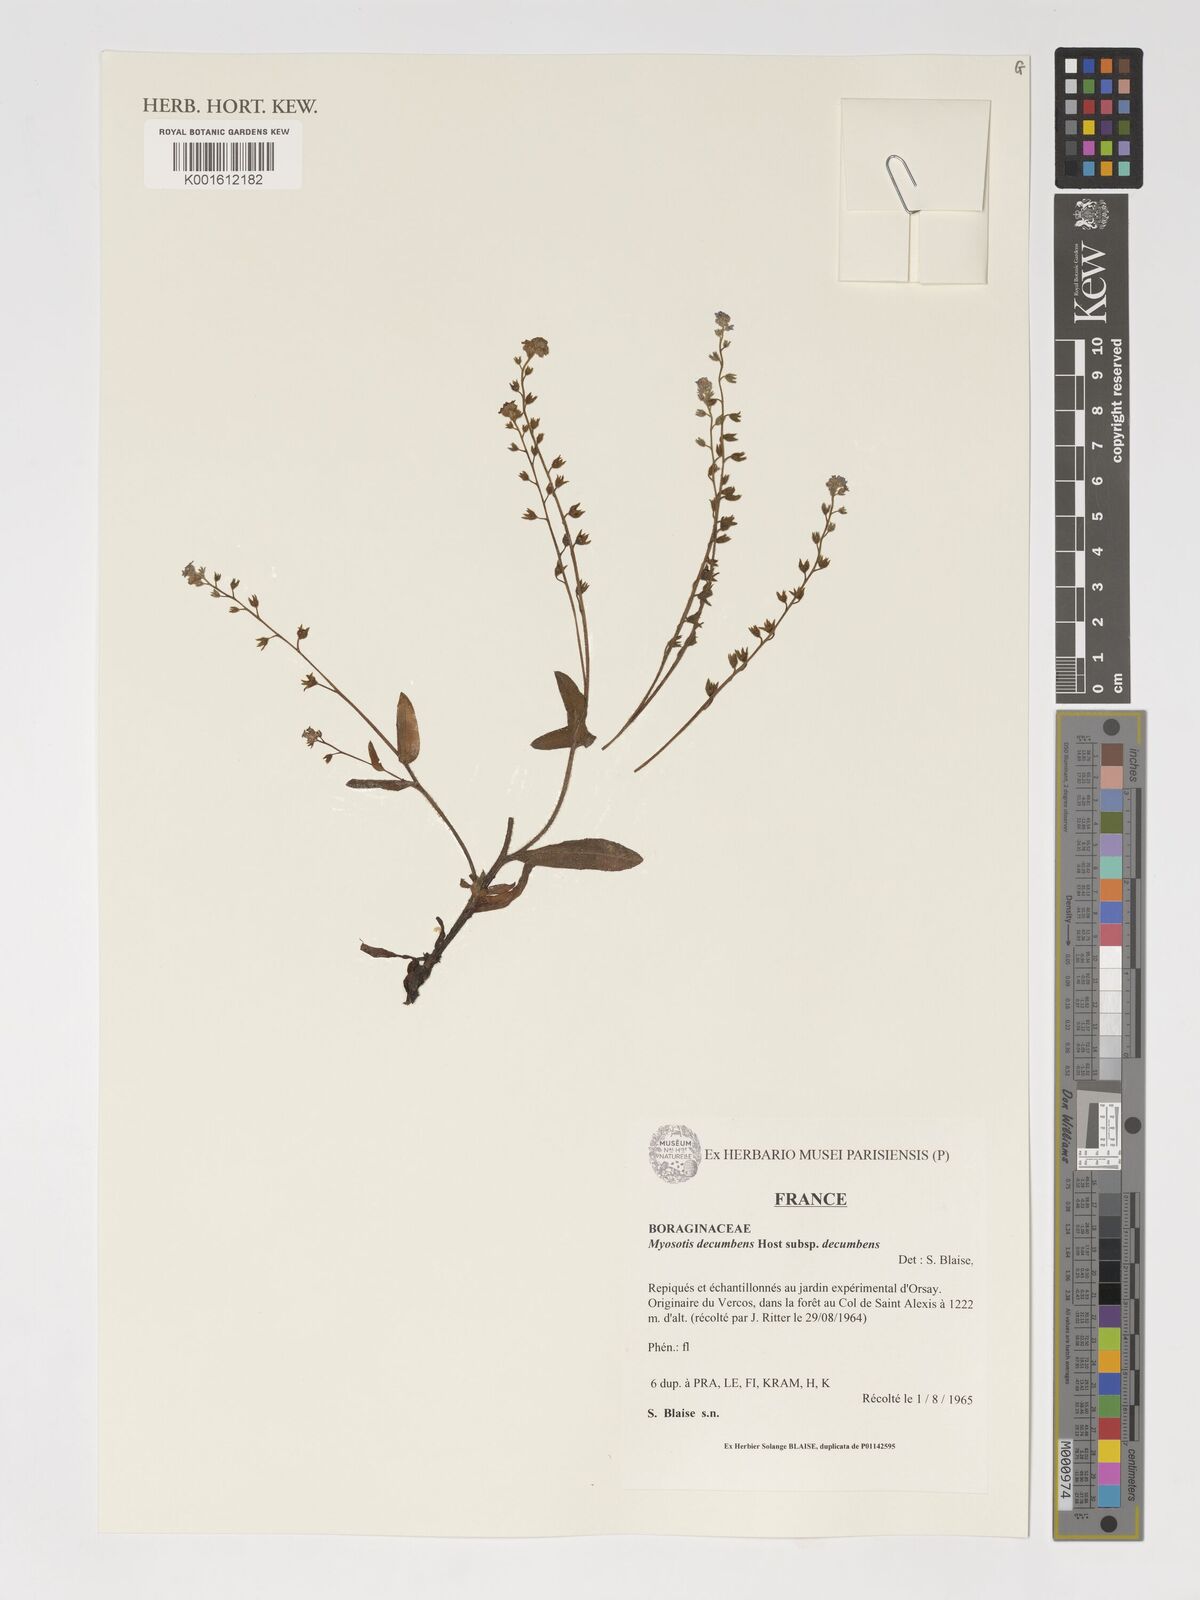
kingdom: Plantae
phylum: Tracheophyta
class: Magnoliopsida
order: Boraginales
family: Boraginaceae
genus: Myosotis
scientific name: Myosotis decumbens
